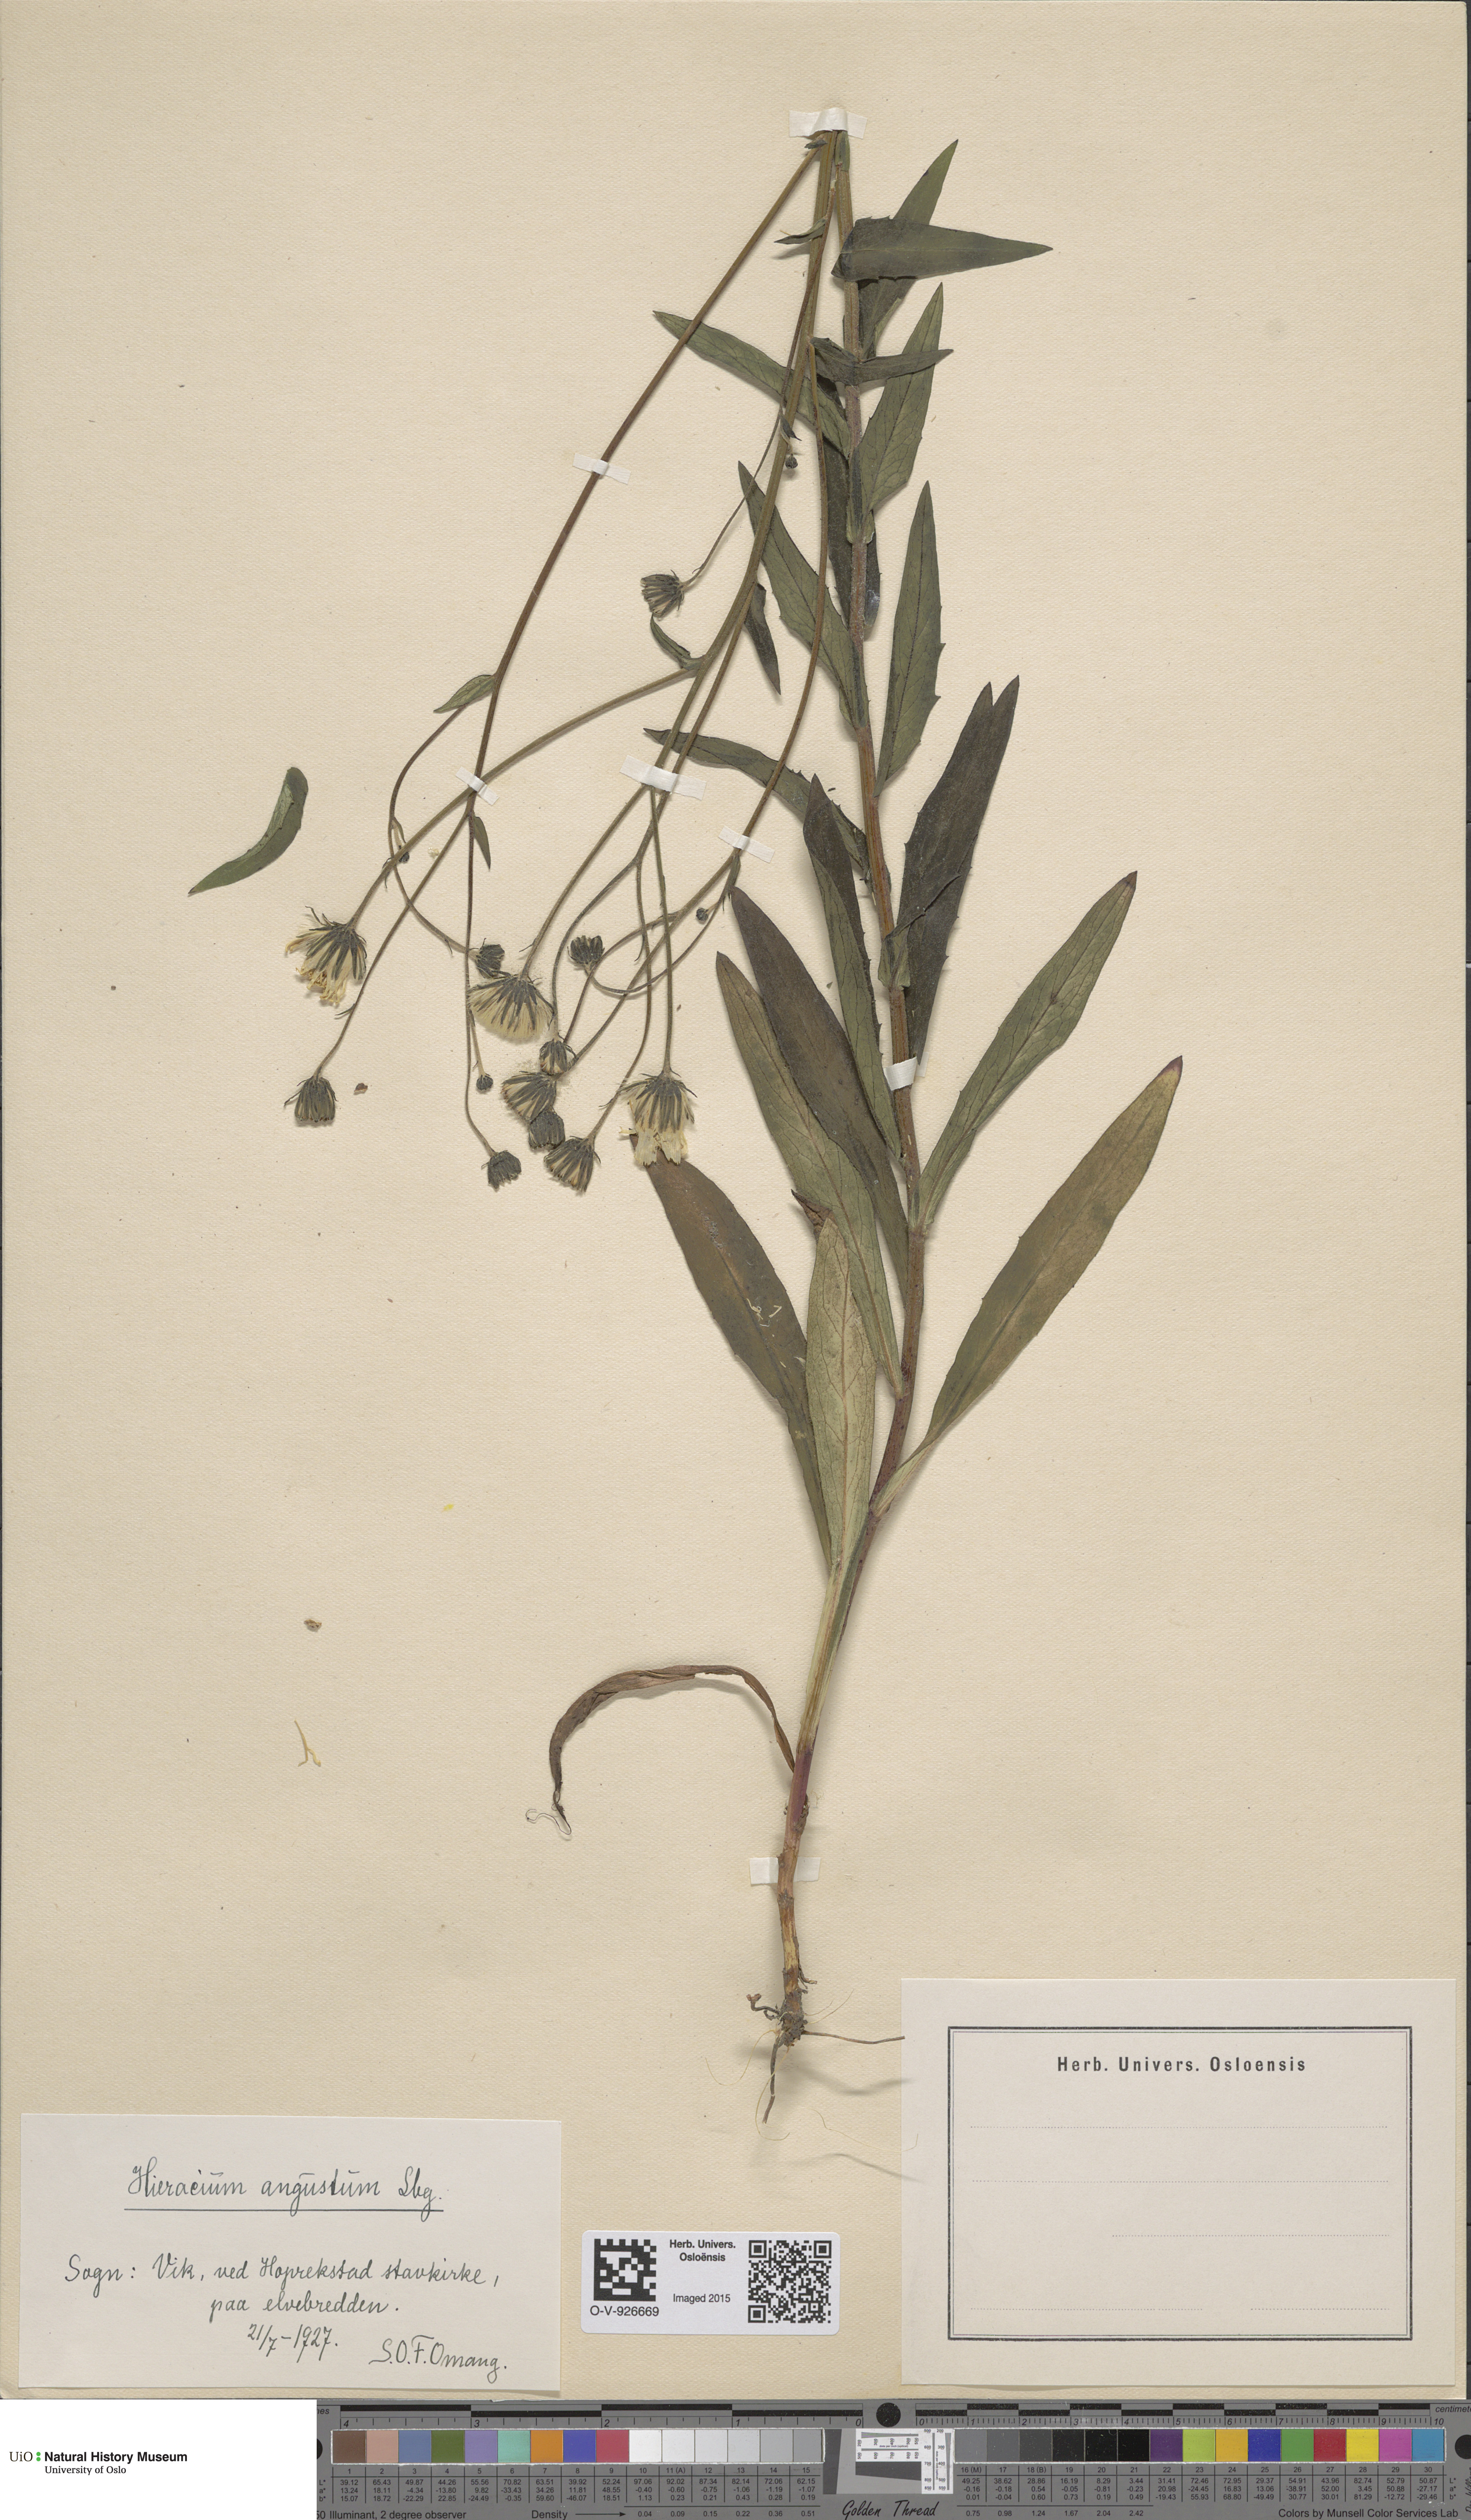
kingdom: Plantae
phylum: Tracheophyta
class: Magnoliopsida
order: Asterales
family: Asteraceae
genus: Hieracium
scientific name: Hieracium angustum
